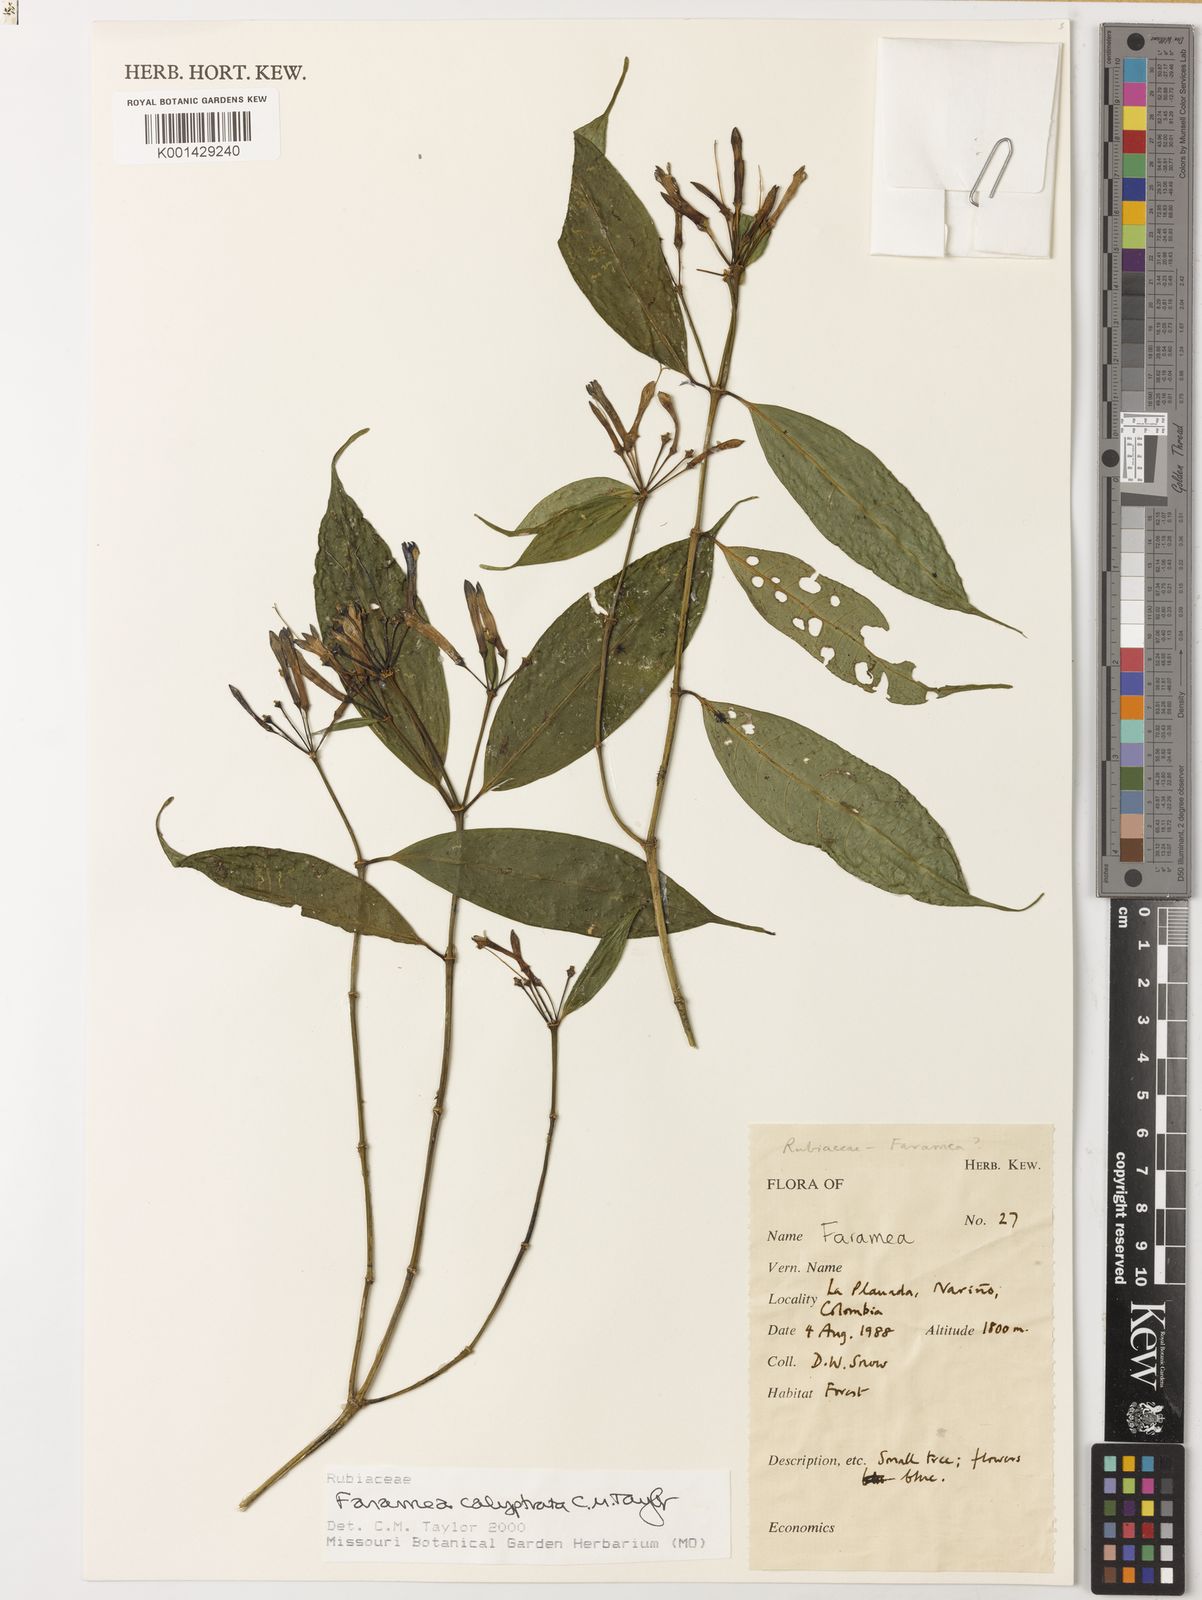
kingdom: Plantae
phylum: Tracheophyta
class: Magnoliopsida
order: Gentianales
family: Rubiaceae
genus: Faramea
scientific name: Faramea calyptrata
